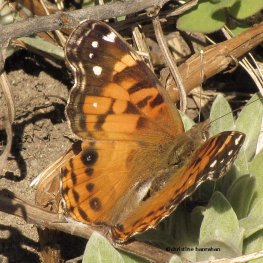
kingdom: Animalia
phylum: Arthropoda
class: Insecta
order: Lepidoptera
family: Nymphalidae
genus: Vanessa
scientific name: Vanessa virginiensis
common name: American Lady
